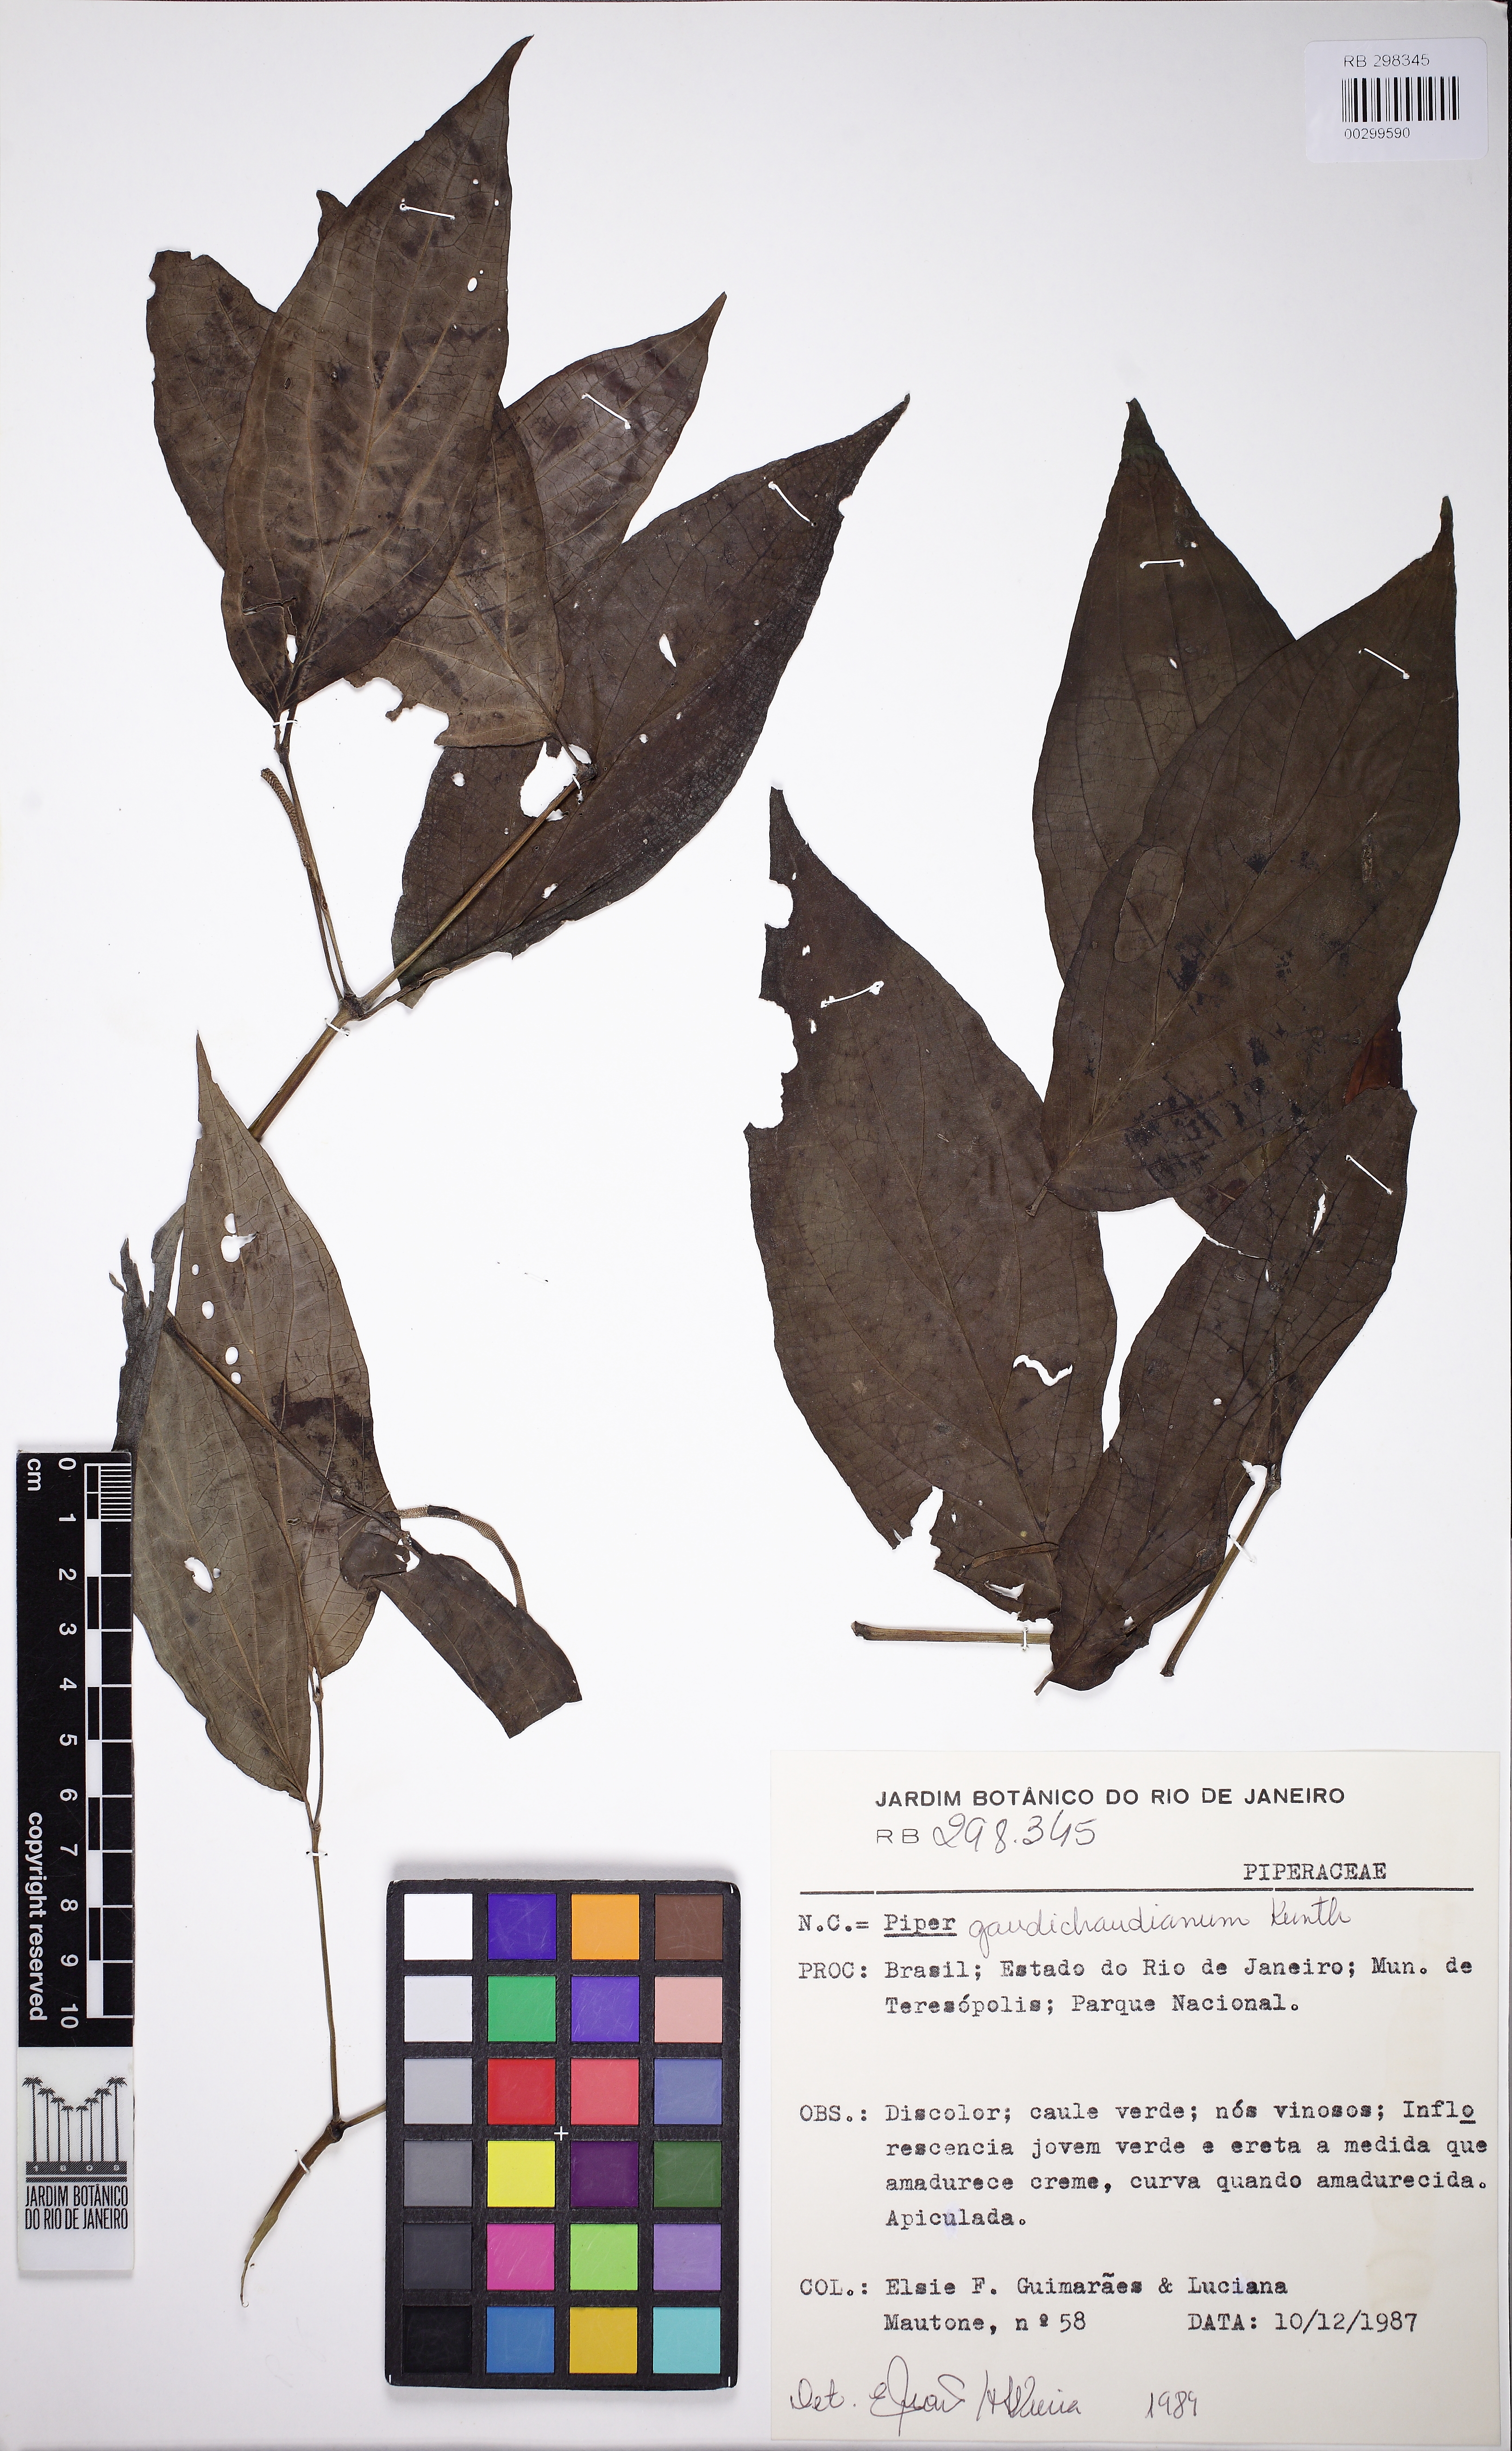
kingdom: Plantae
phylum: Tracheophyta
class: Magnoliopsida
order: Piperales
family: Piperaceae
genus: Piper
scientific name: Piper gaudichaudianum
